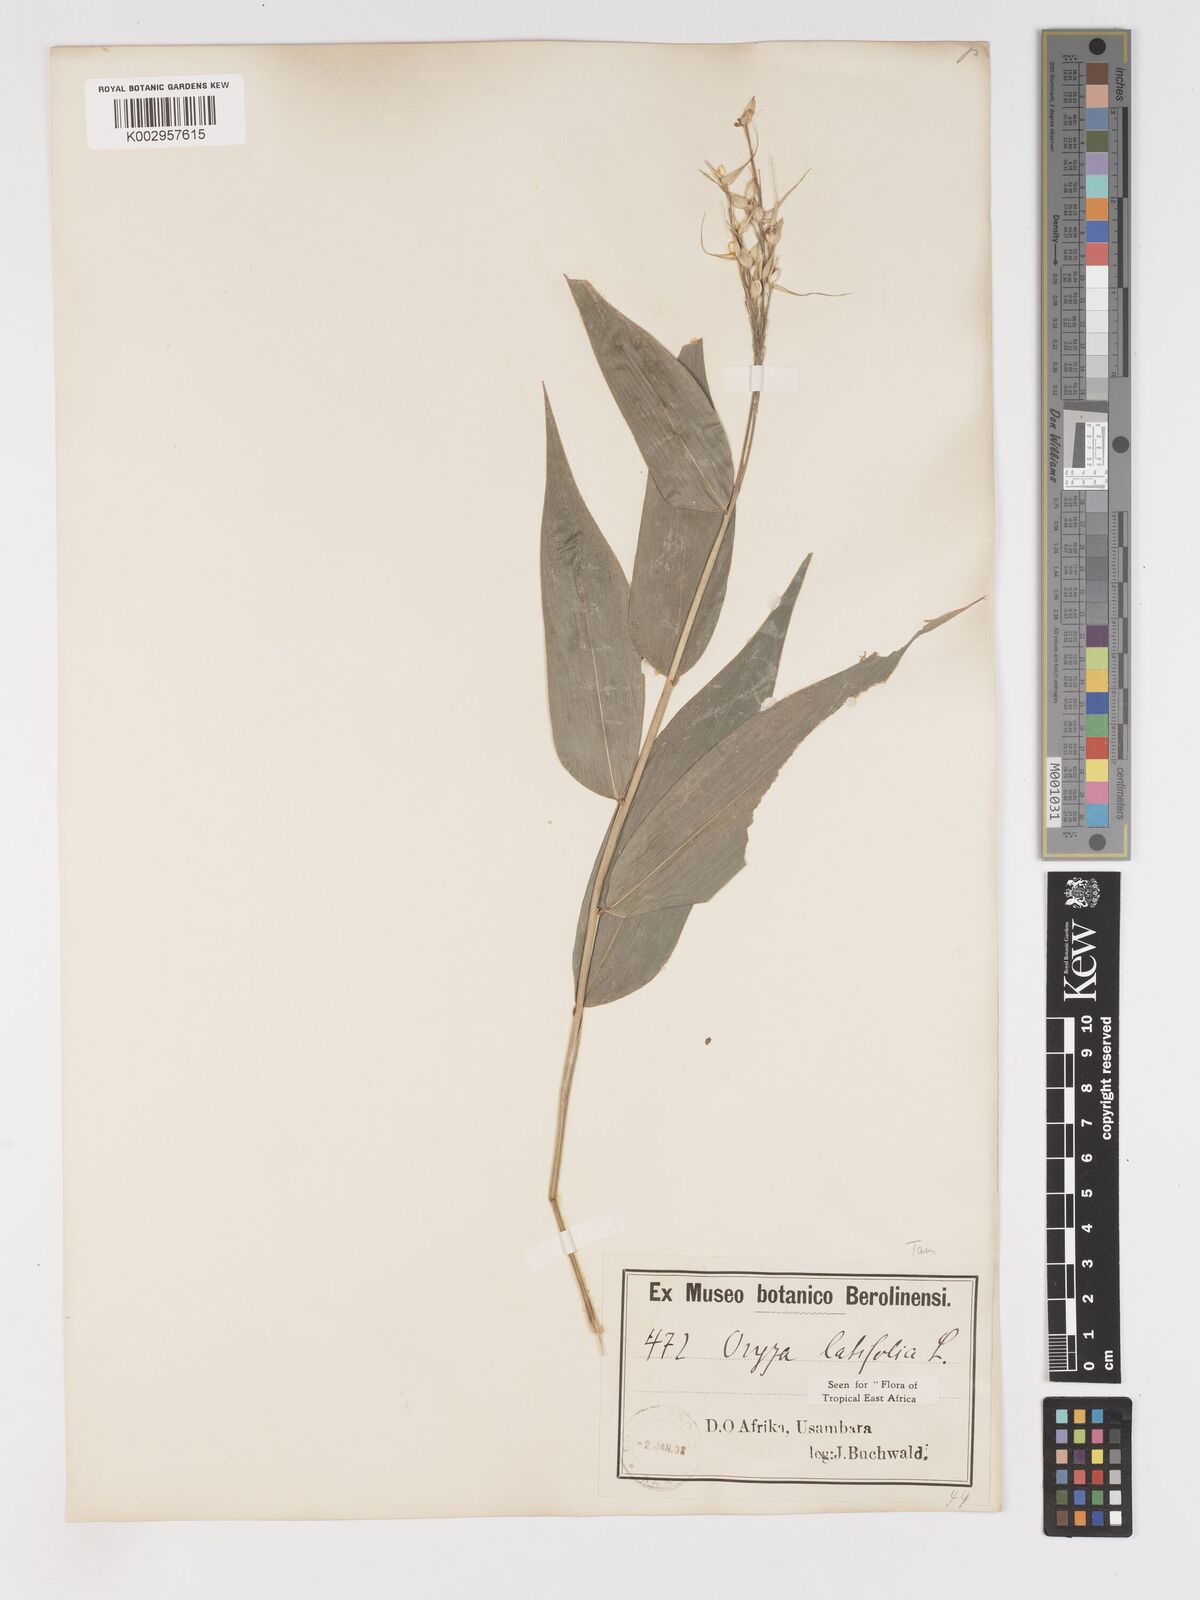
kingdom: Plantae
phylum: Tracheophyta
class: Liliopsida
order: Poales
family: Poaceae
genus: Olyra
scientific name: Olyra latifolia
